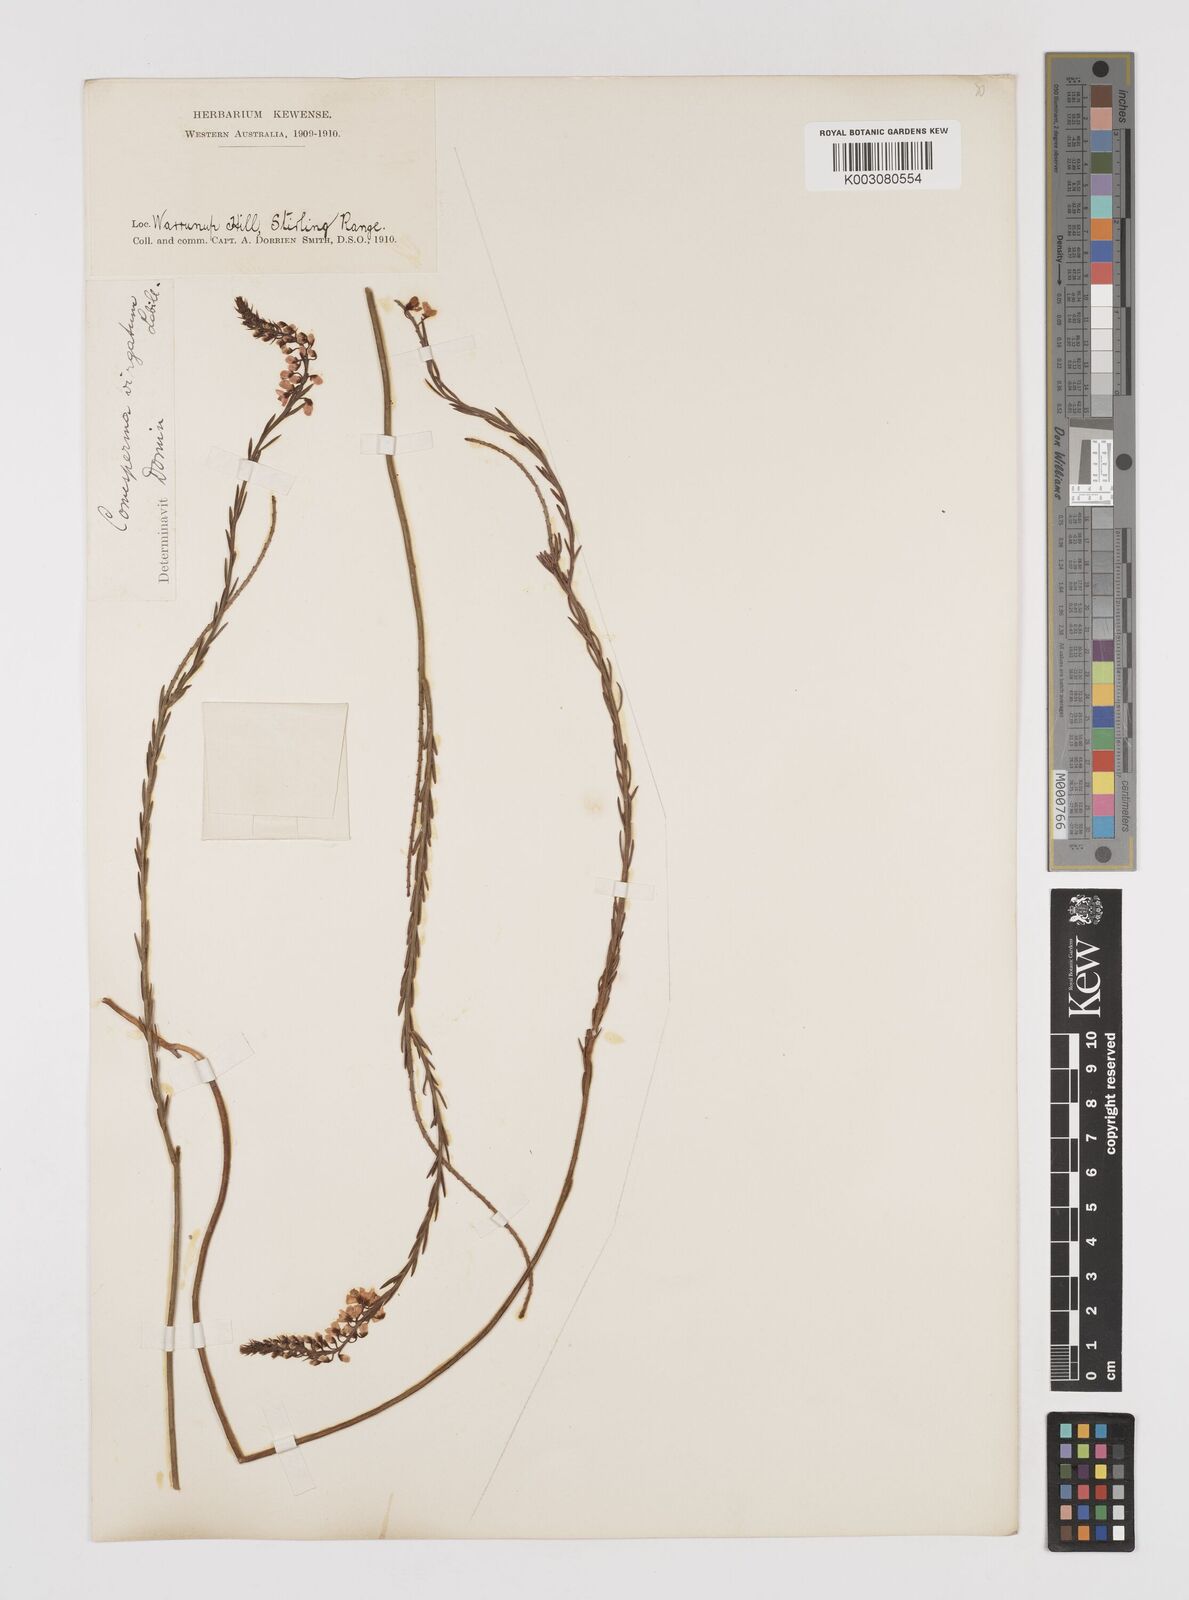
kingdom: Plantae
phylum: Tracheophyta
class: Magnoliopsida
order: Fabales
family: Polygalaceae
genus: Comesperma
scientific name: Comesperma virgatum
